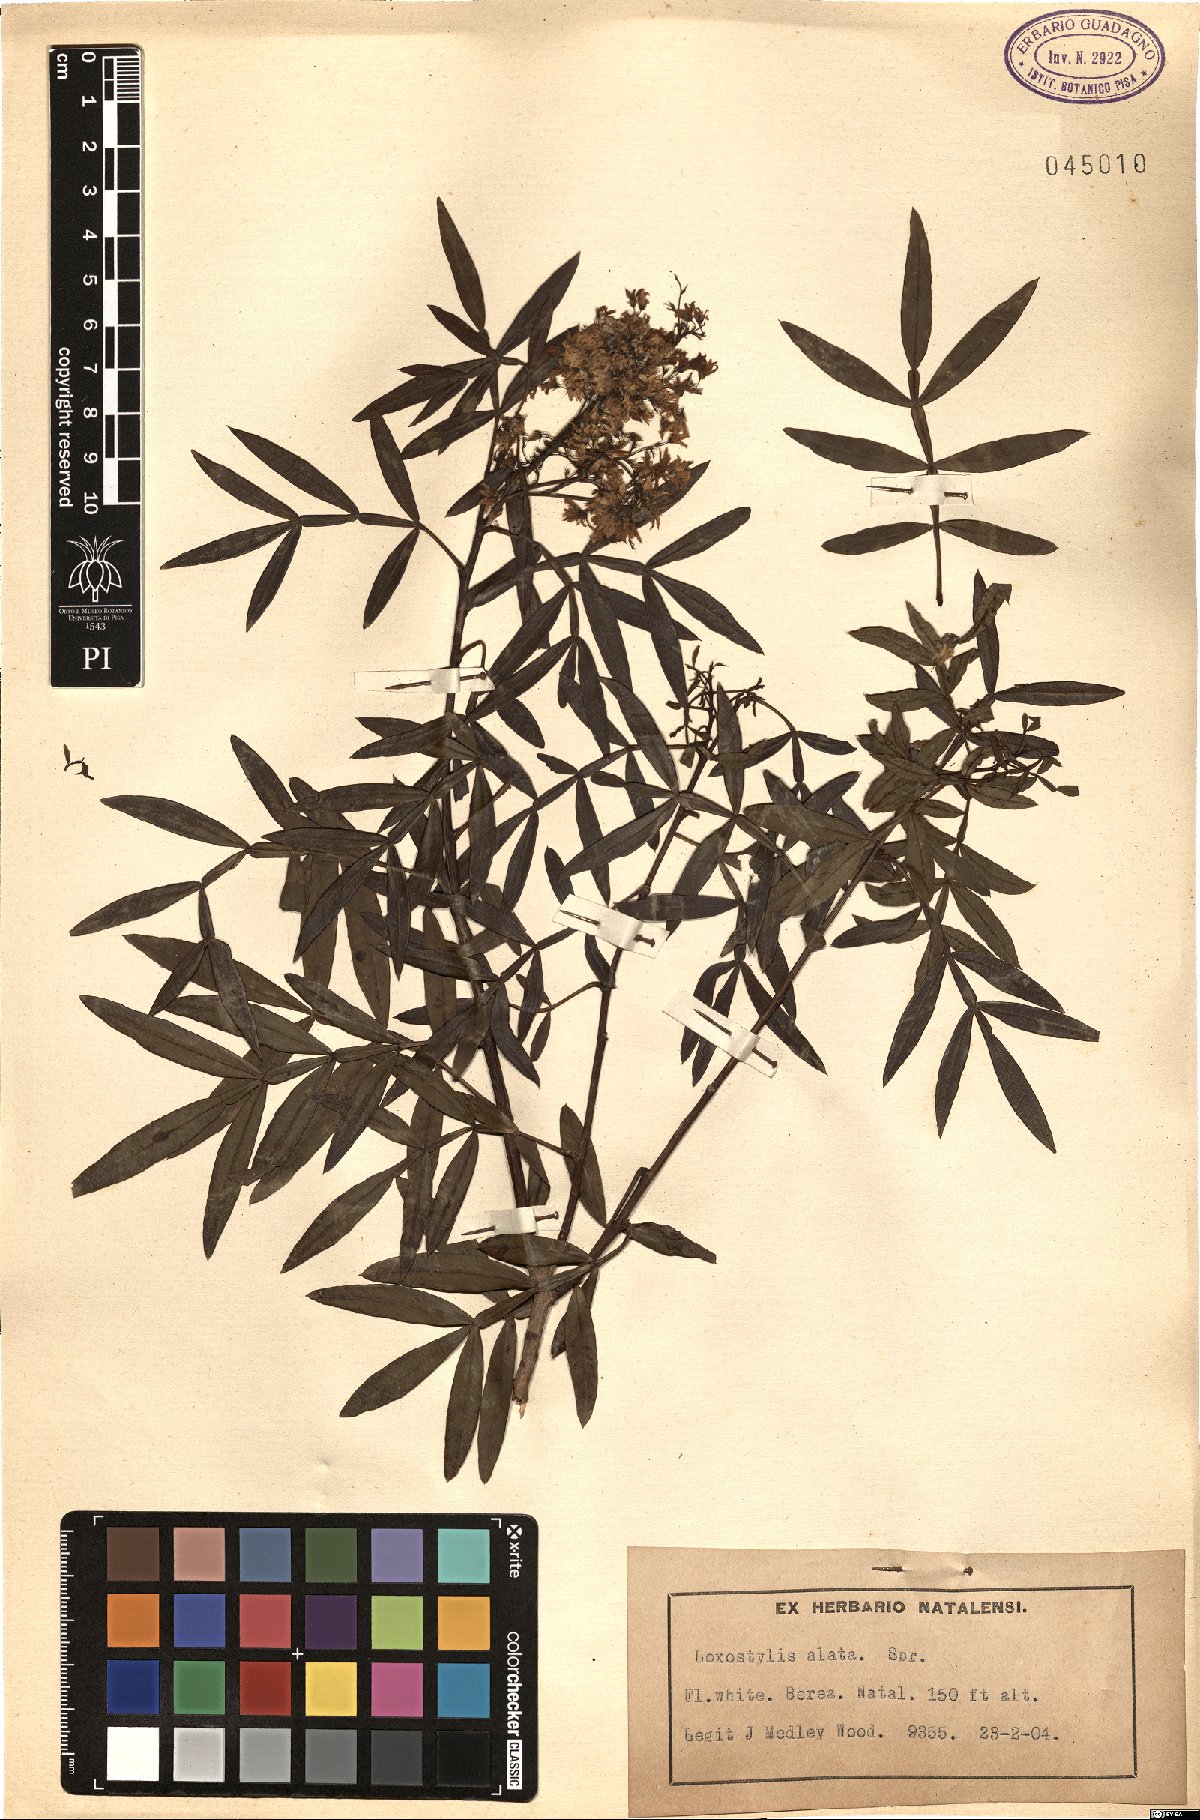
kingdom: Plantae
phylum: Tracheophyta
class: Magnoliopsida
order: Sapindales
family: Anacardiaceae
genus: Loxostylis
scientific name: Loxostylis alata
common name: Wild peppertree
